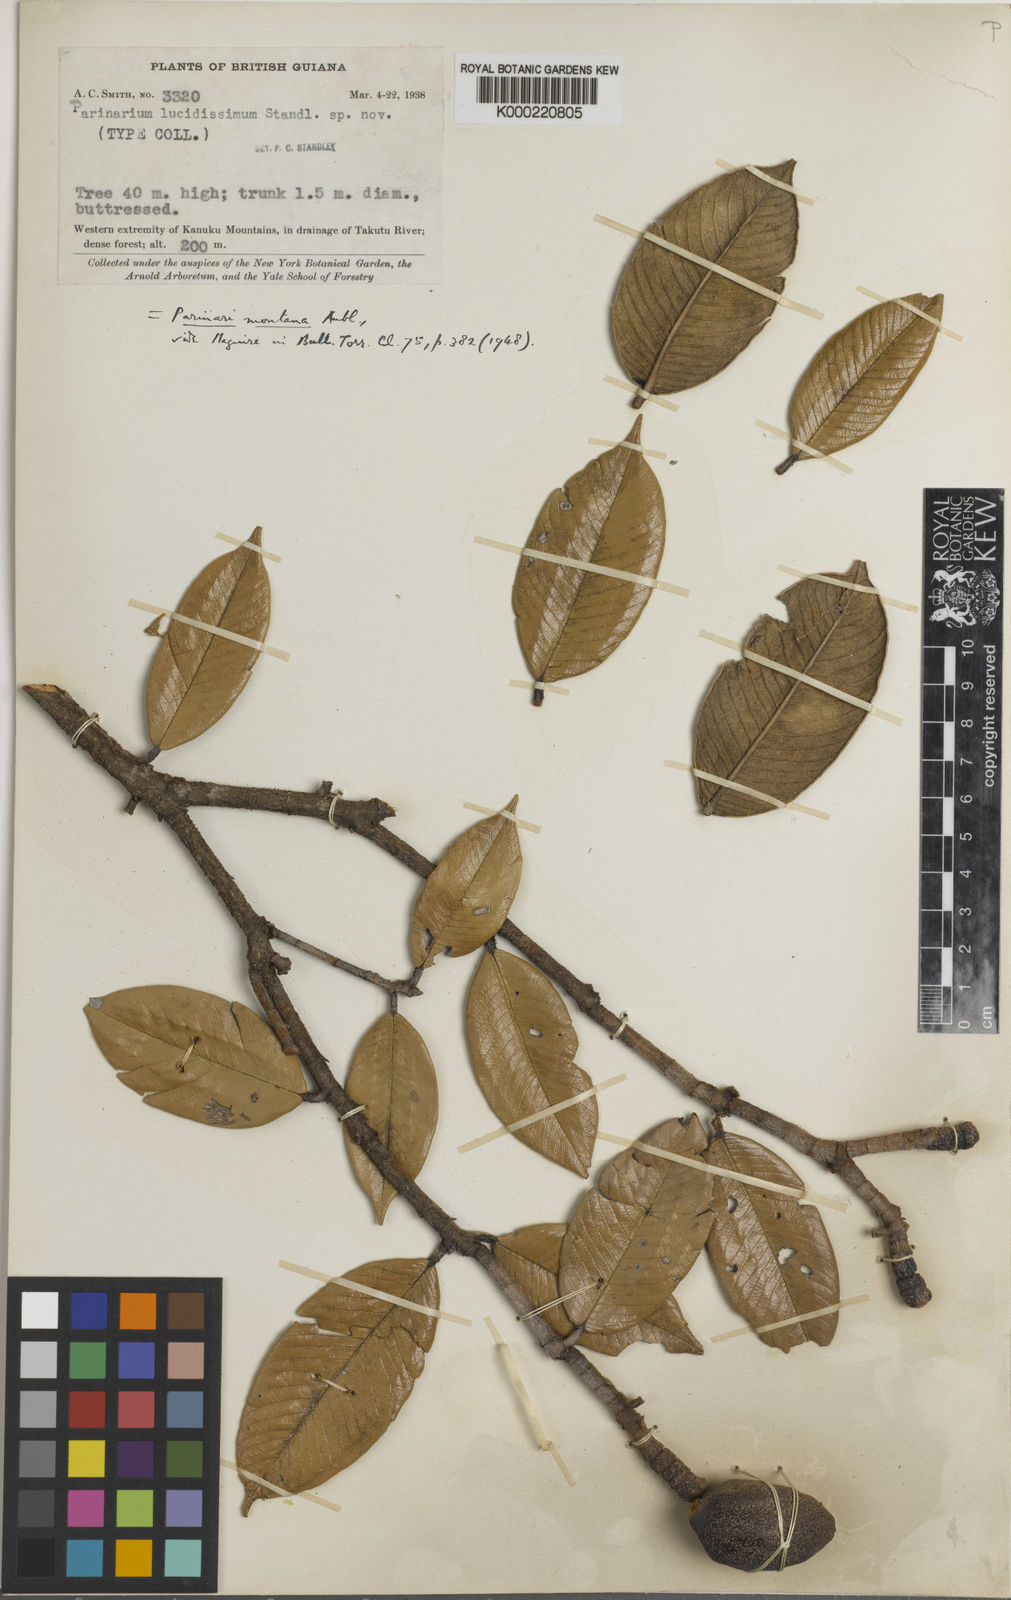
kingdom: Plantae
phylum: Tracheophyta
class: Magnoliopsida
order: Malpighiales
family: Chrysobalanaceae
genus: Parinari
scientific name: Parinari montana
